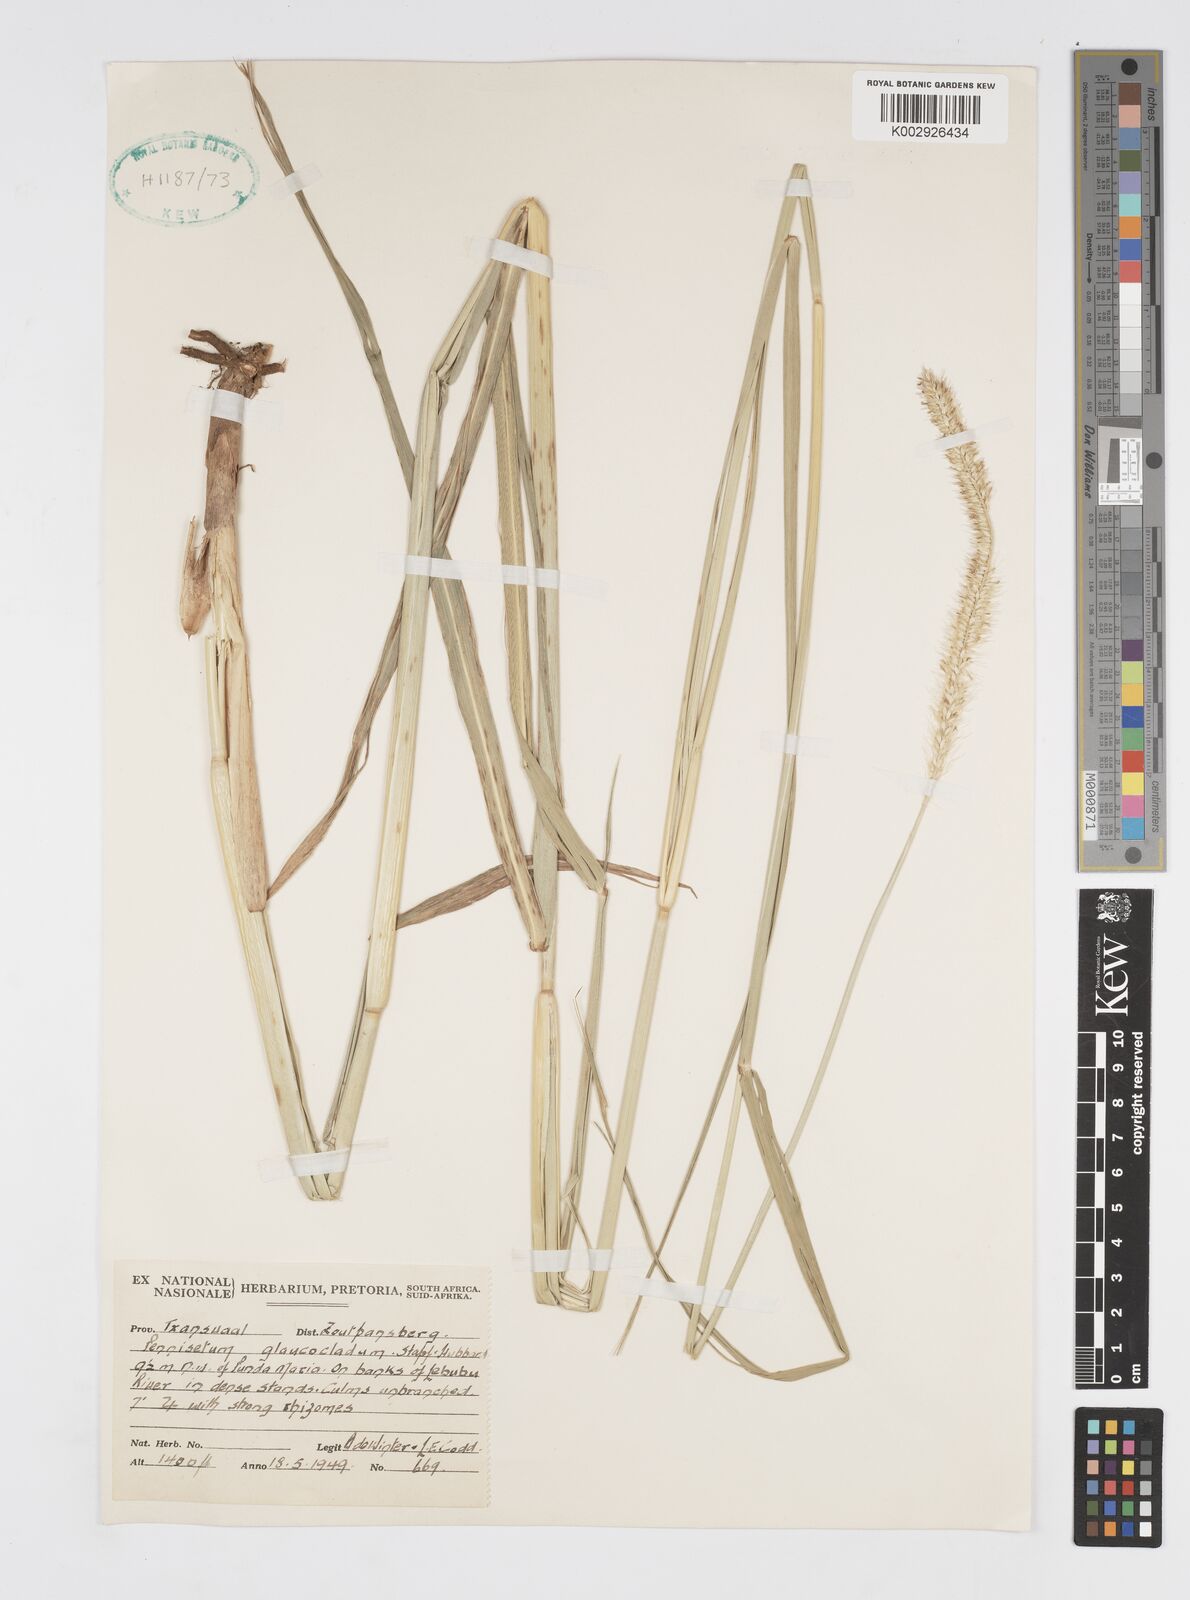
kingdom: Plantae
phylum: Tracheophyta
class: Liliopsida
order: Poales
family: Poaceae
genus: Cenchrus
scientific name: Cenchrus caudatus
